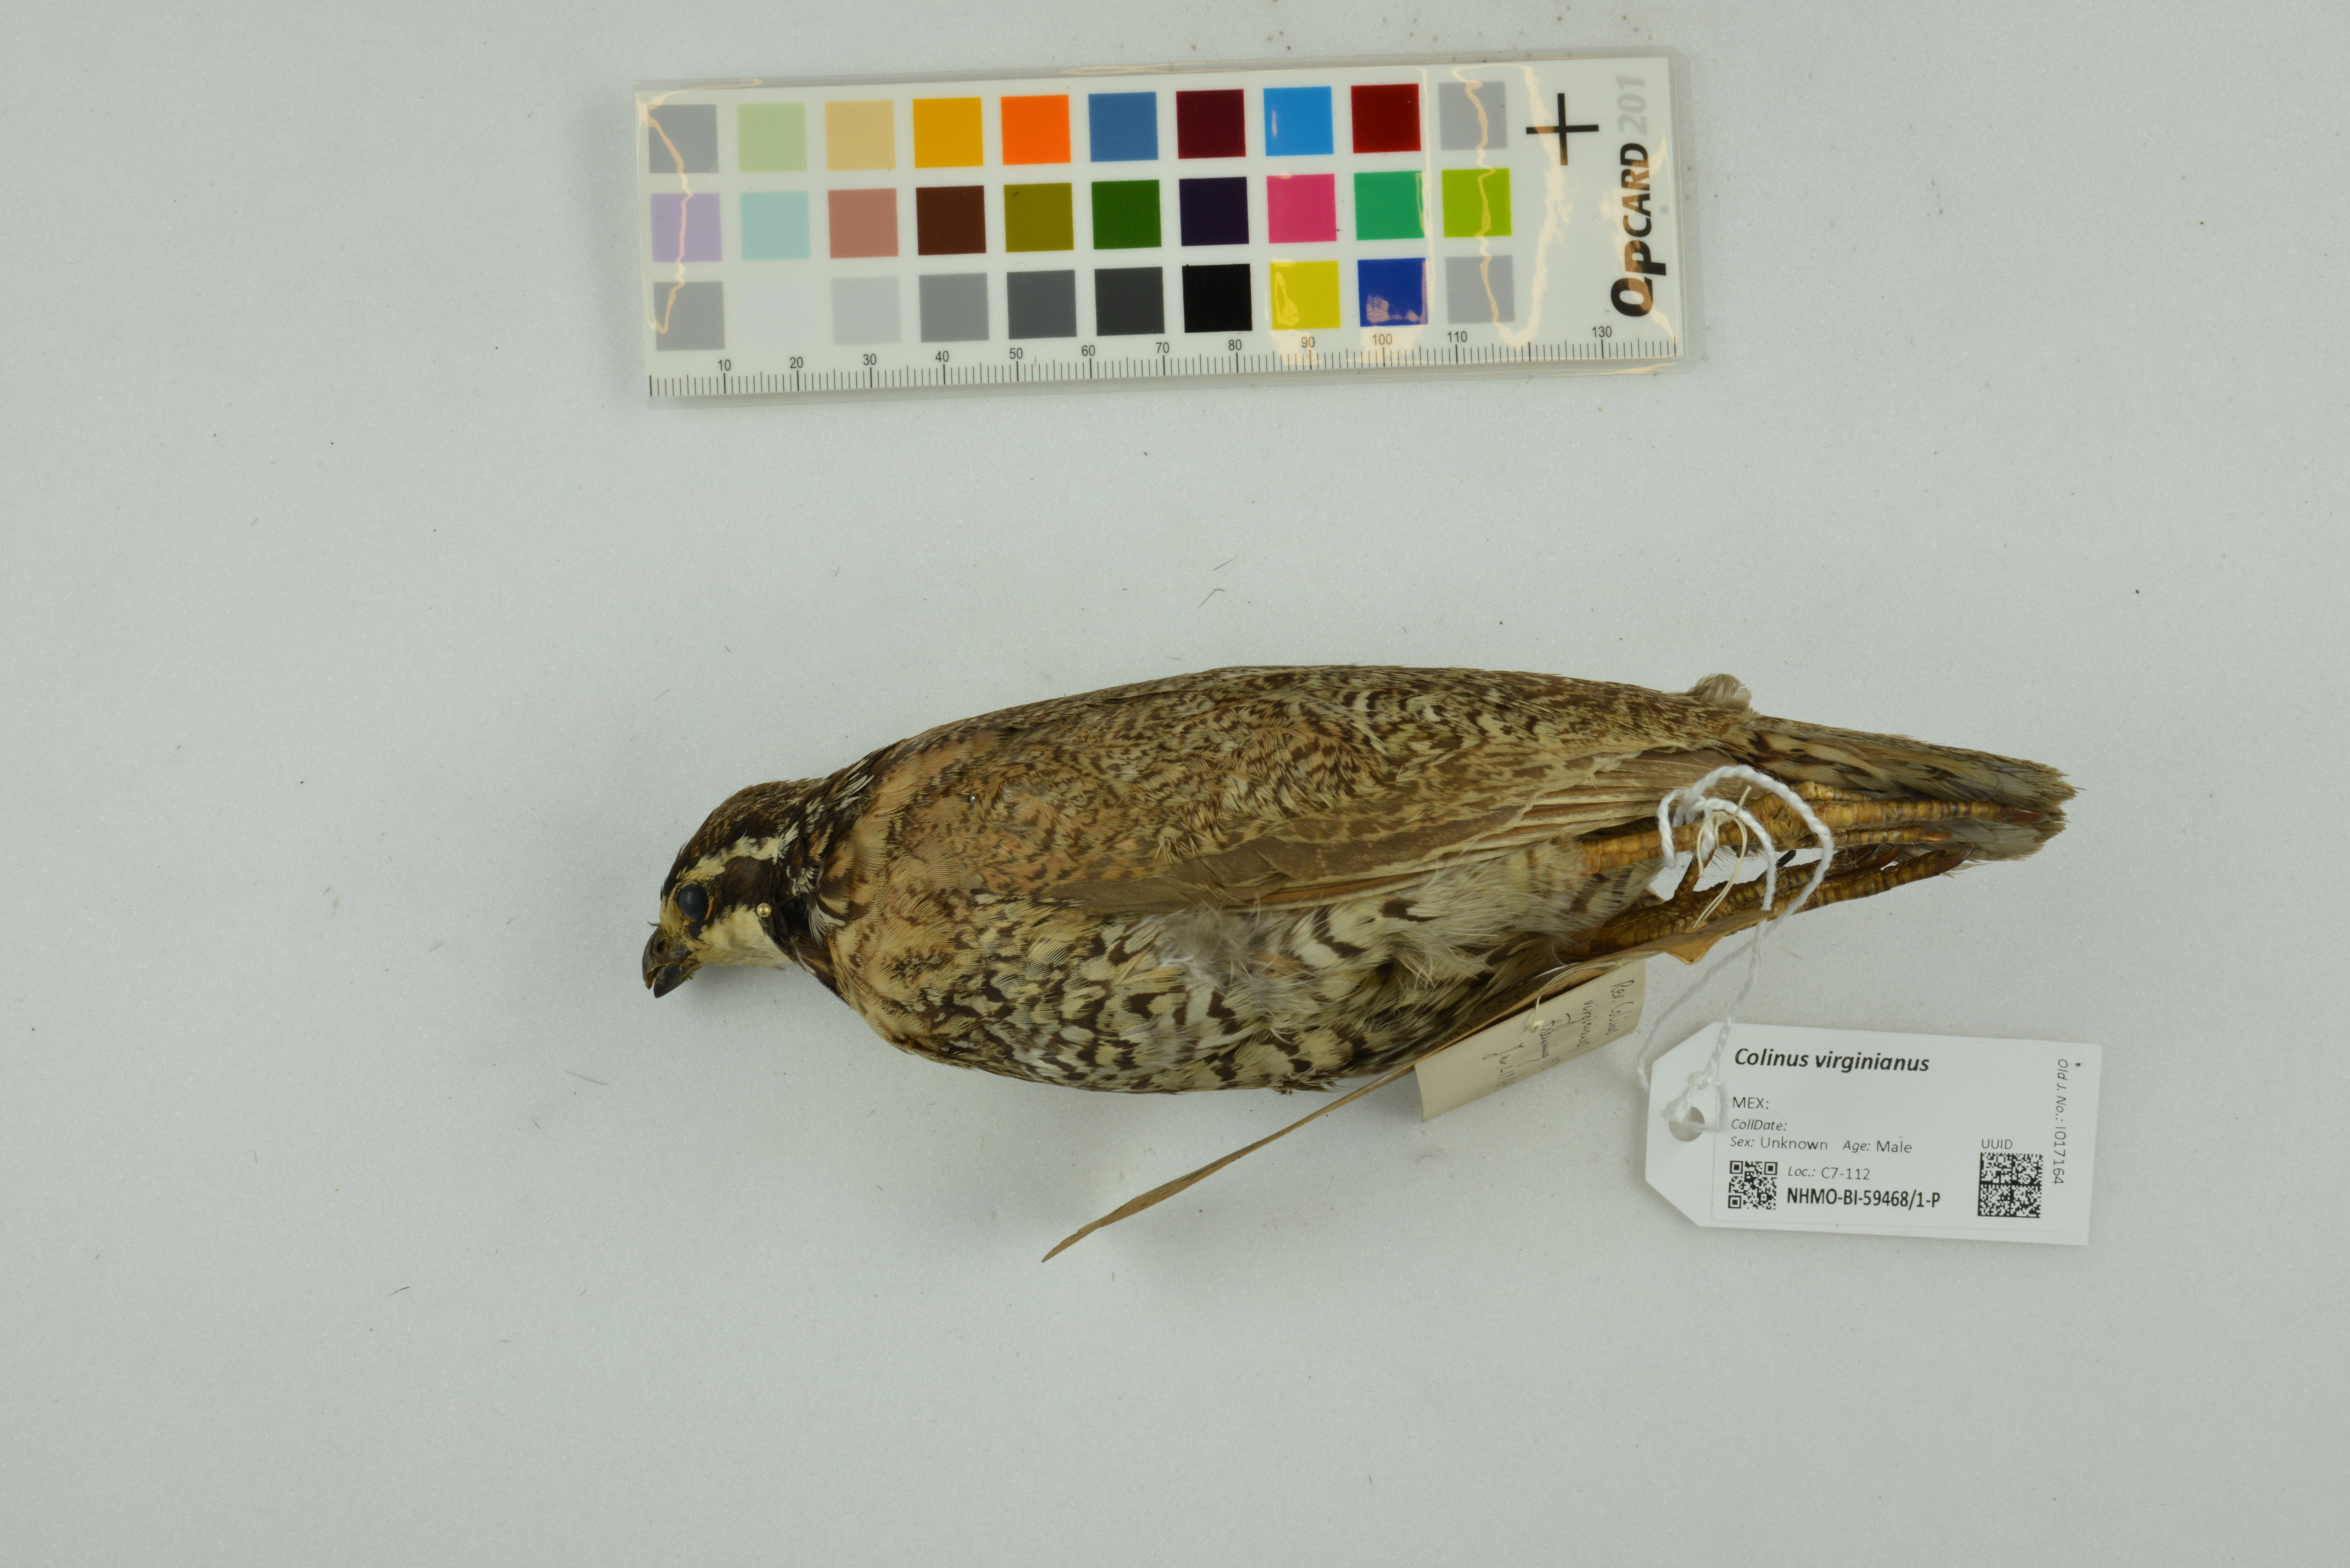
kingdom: Animalia
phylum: Chordata
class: Aves
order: Galliformes
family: Odontophoridae
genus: Colinus
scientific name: Colinus virginianus
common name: Northern bobwhite
